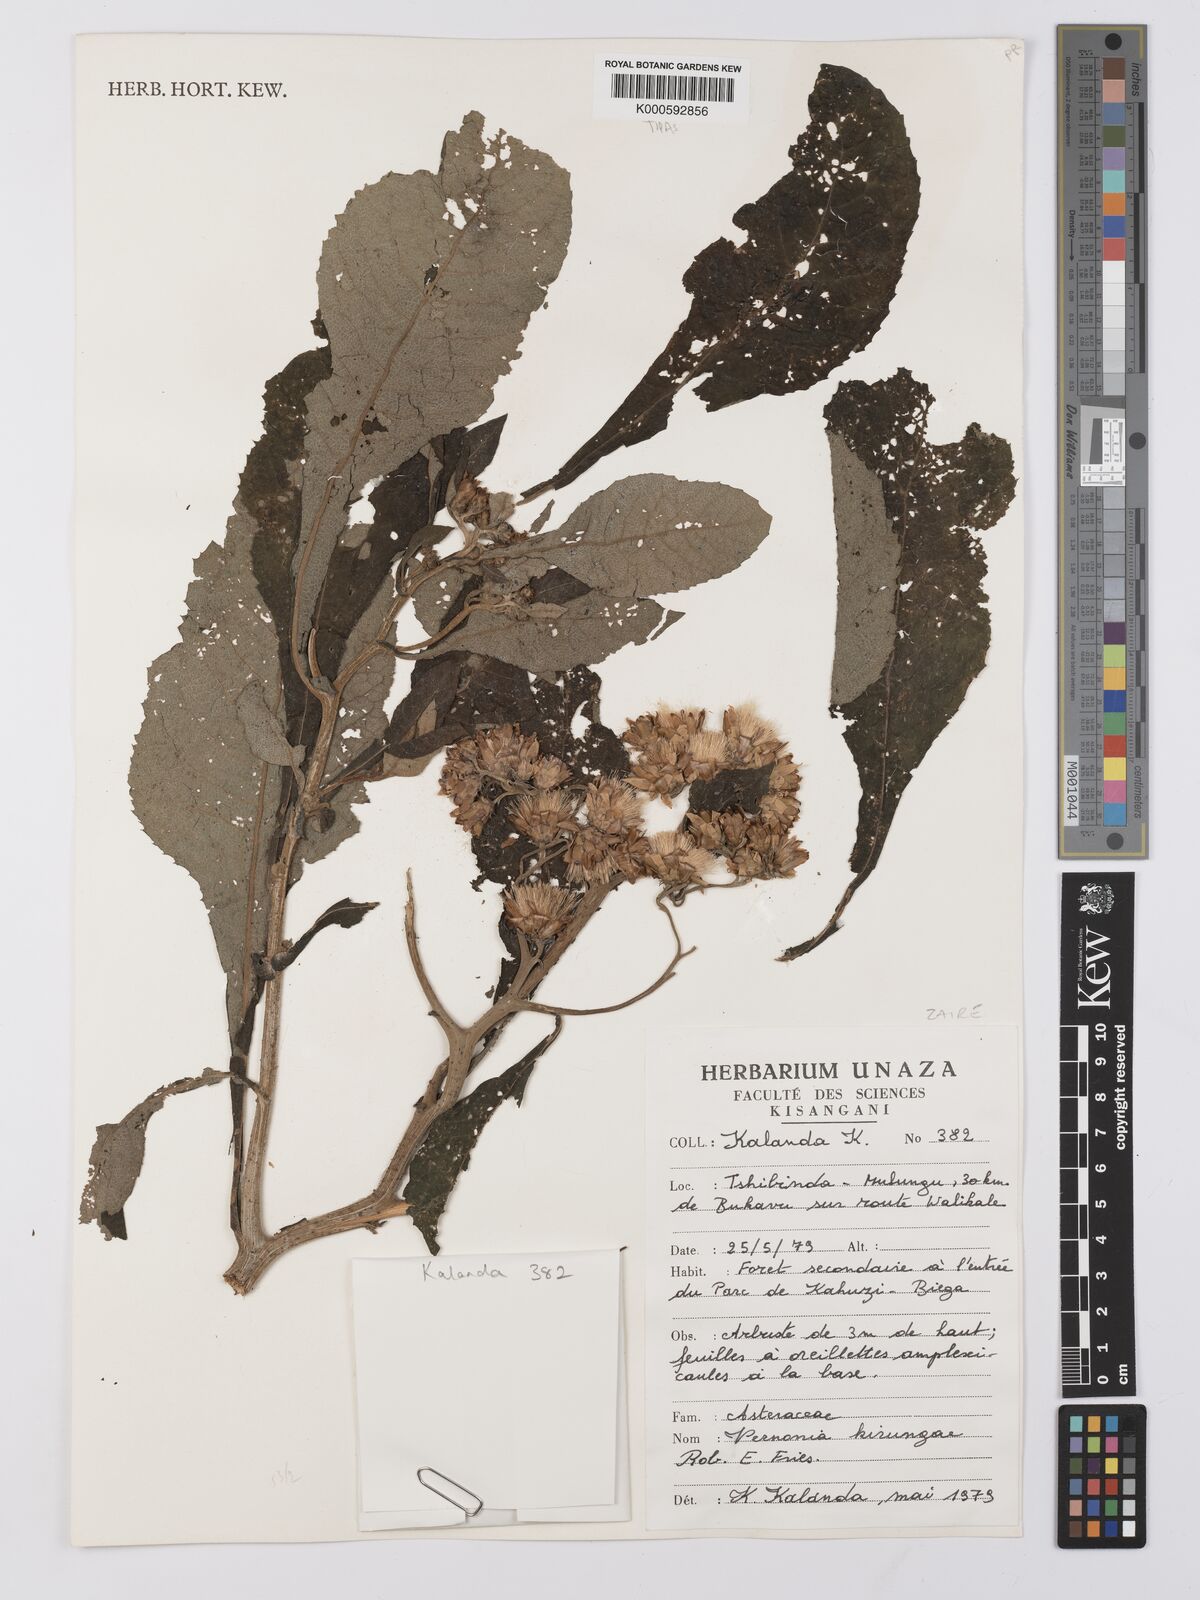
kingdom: Plantae
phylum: Tracheophyta
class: Magnoliopsida
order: Asterales
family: Asteraceae
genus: Baccharoides
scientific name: Baccharoides kirungae
